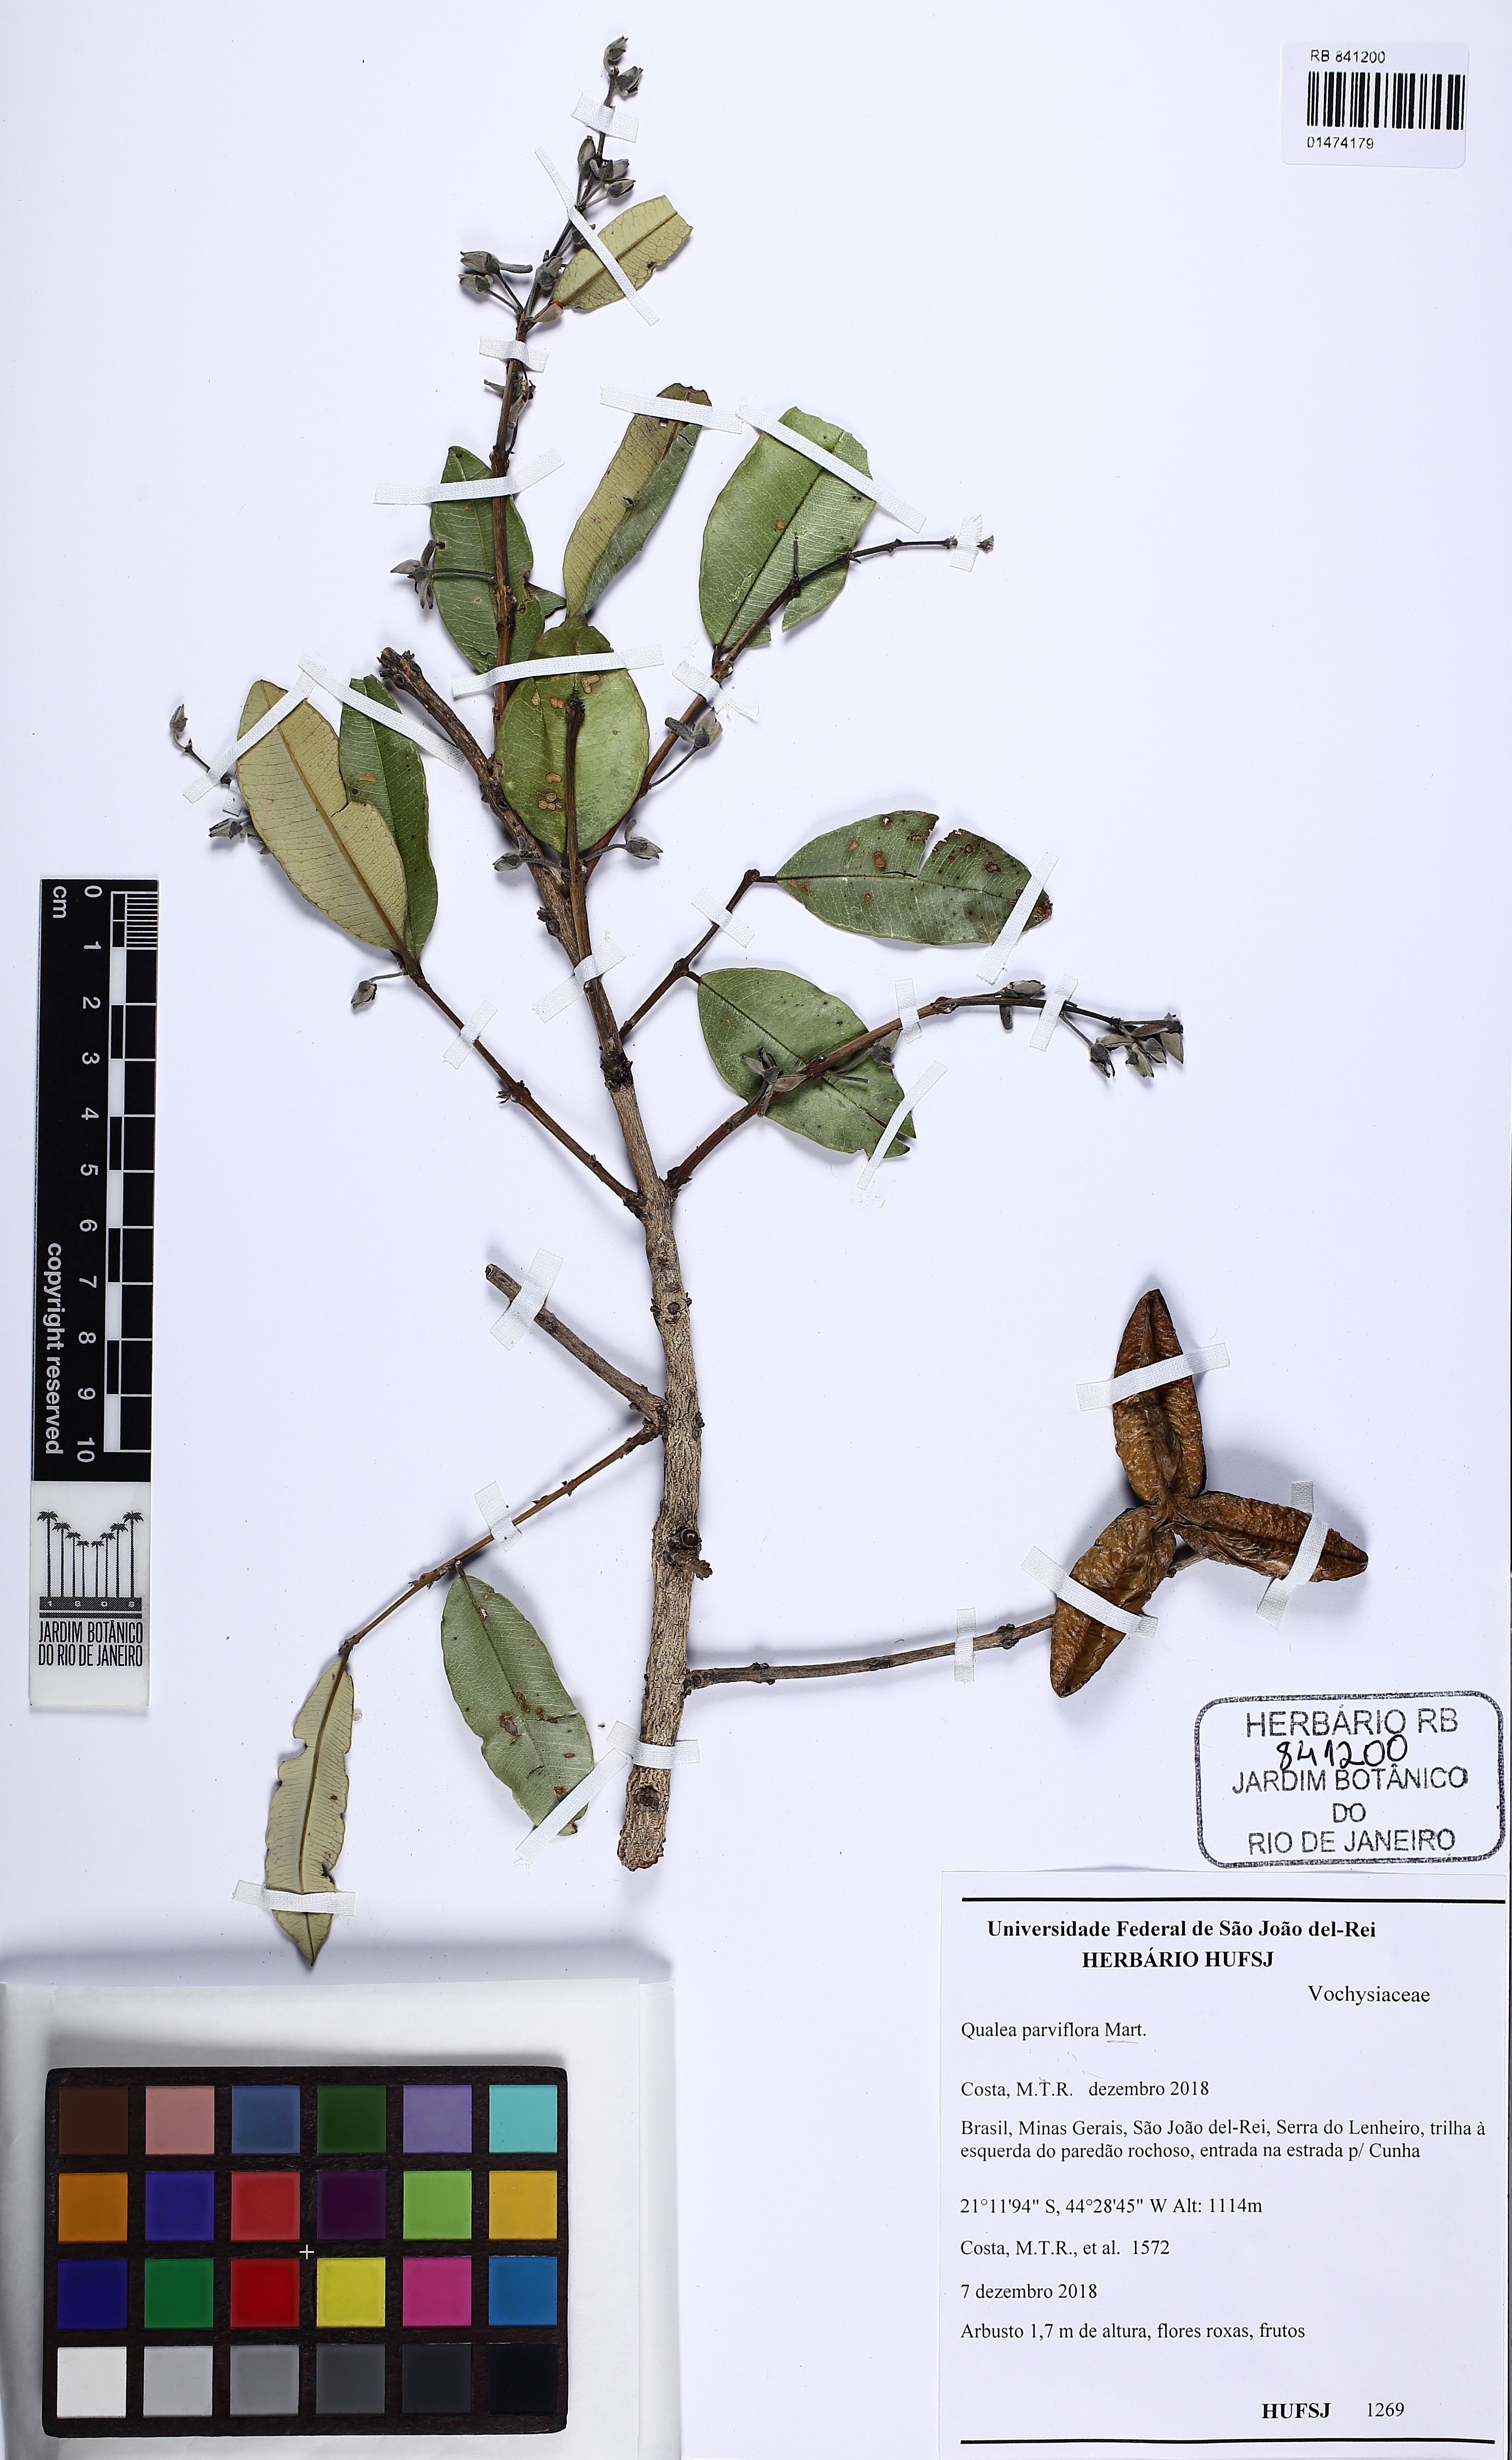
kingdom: Plantae
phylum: Tracheophyta
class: Magnoliopsida
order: Myrtales
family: Vochysiaceae
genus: Qualea
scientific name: Qualea parviflora
